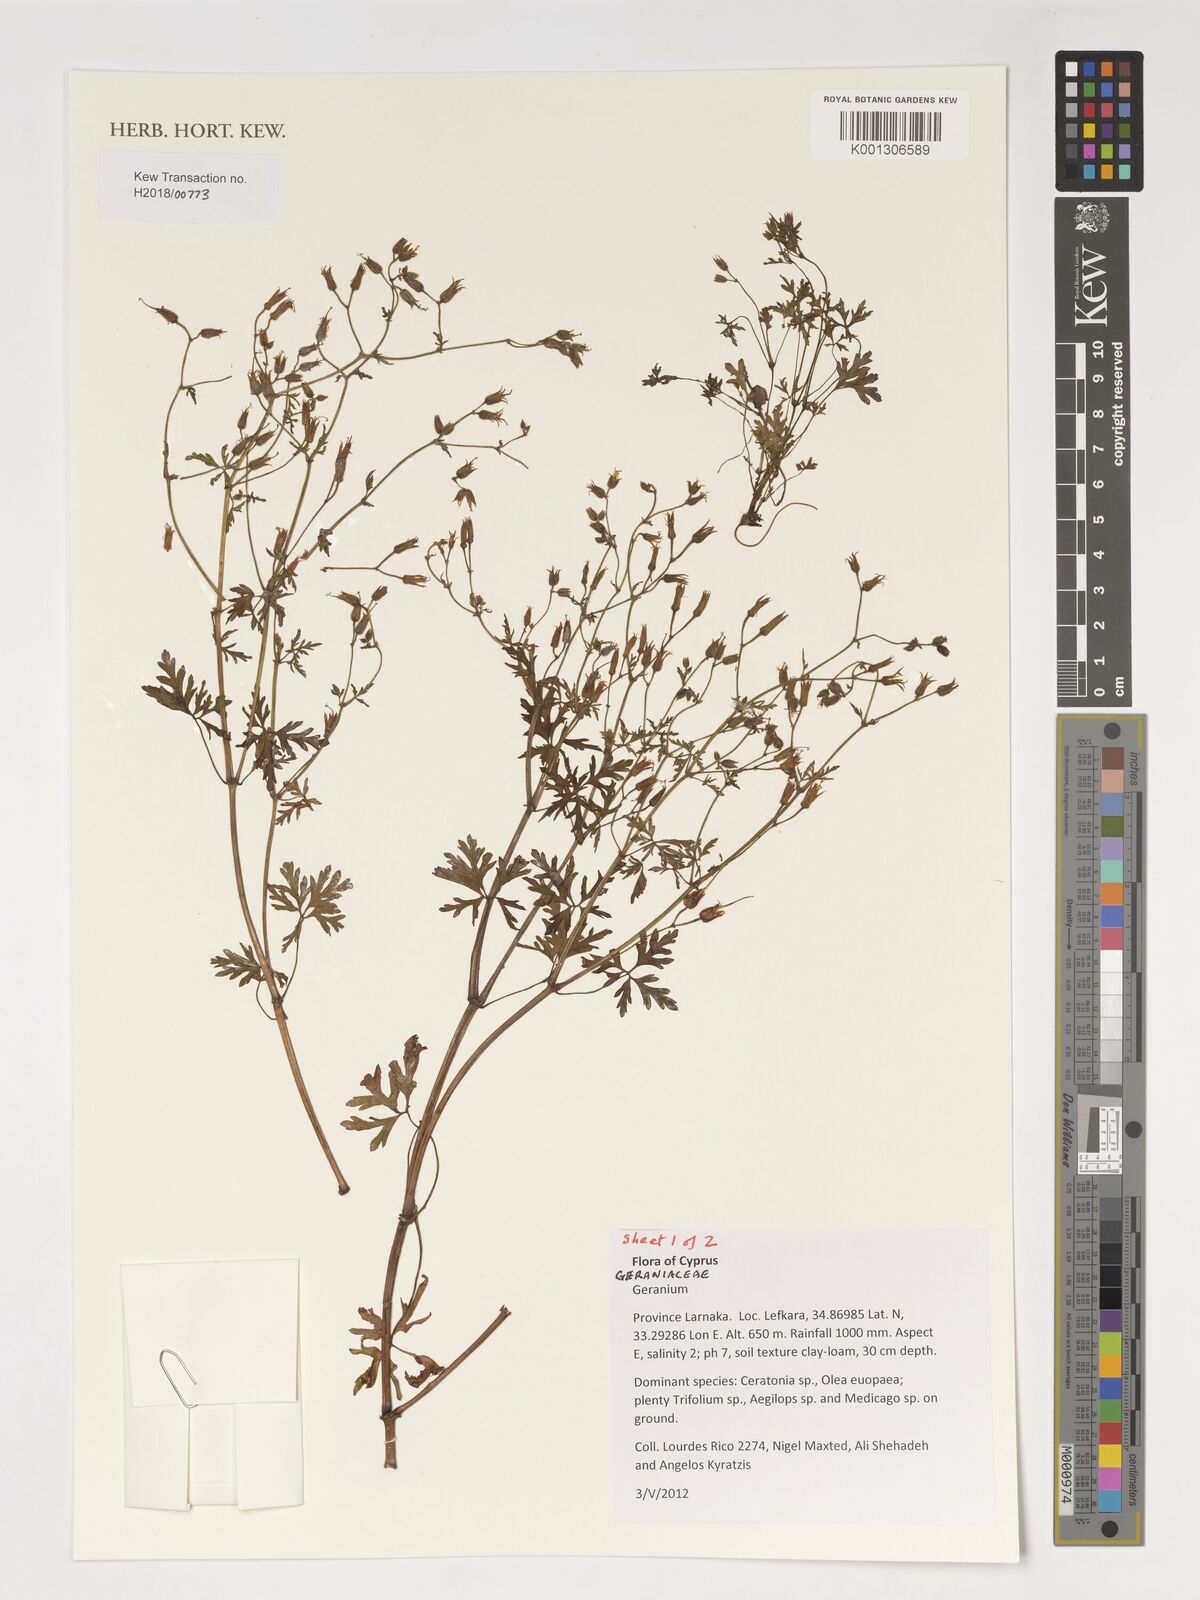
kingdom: Plantae
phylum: Tracheophyta
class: Magnoliopsida
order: Geraniales
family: Geraniaceae
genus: Geranium
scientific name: Geranium
